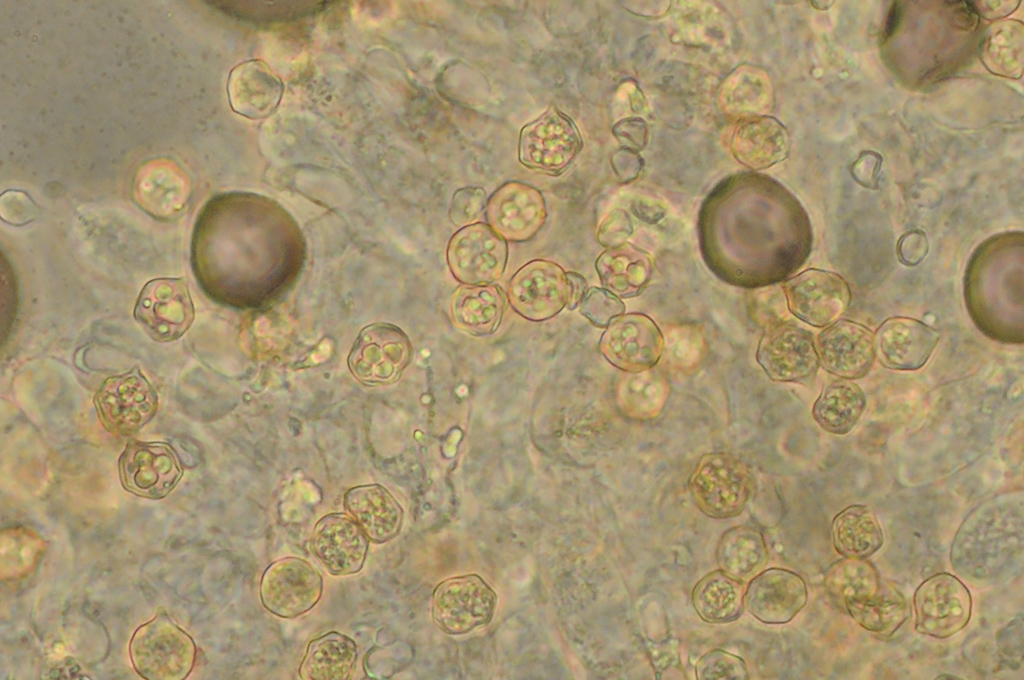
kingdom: Fungi
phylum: Basidiomycota
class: Agaricomycetes
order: Agaricales
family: Entolomataceae
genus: Entoloma
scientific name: Entoloma vindobonense
